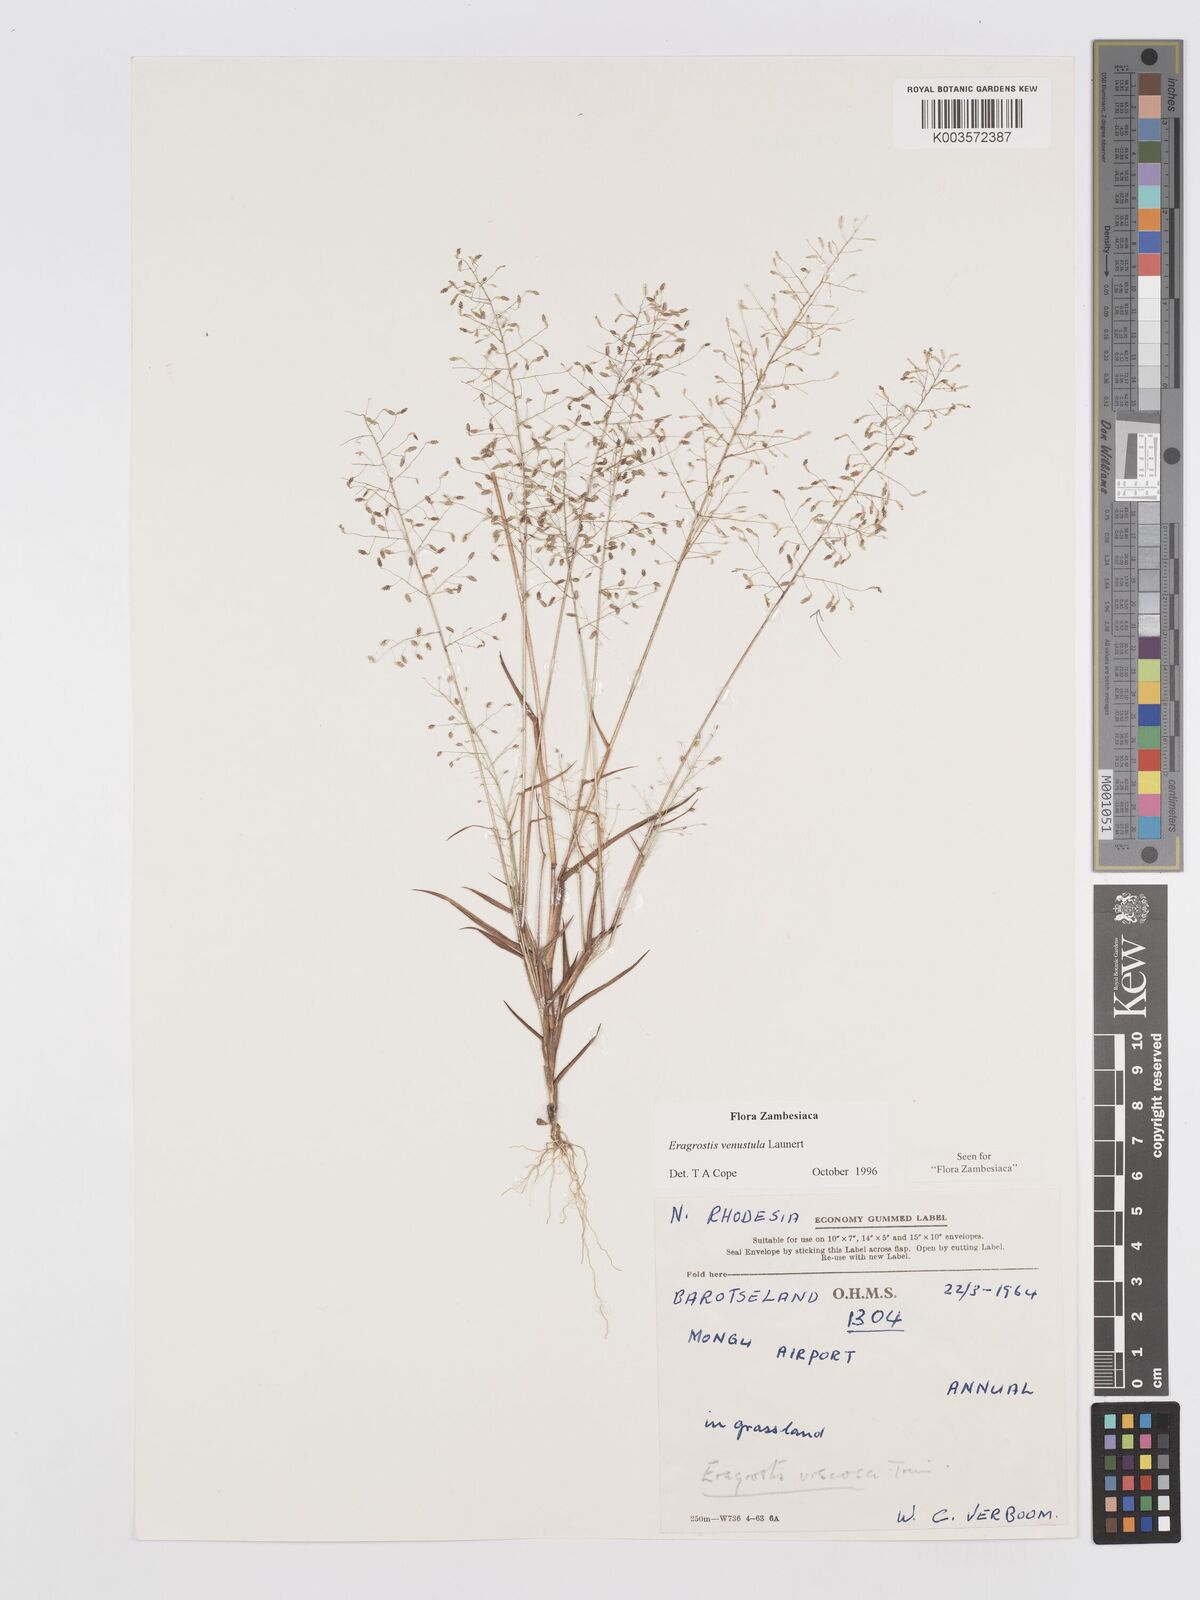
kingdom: Plantae
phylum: Tracheophyta
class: Liliopsida
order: Poales
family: Poaceae
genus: Eragrostis
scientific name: Eragrostis venustula
